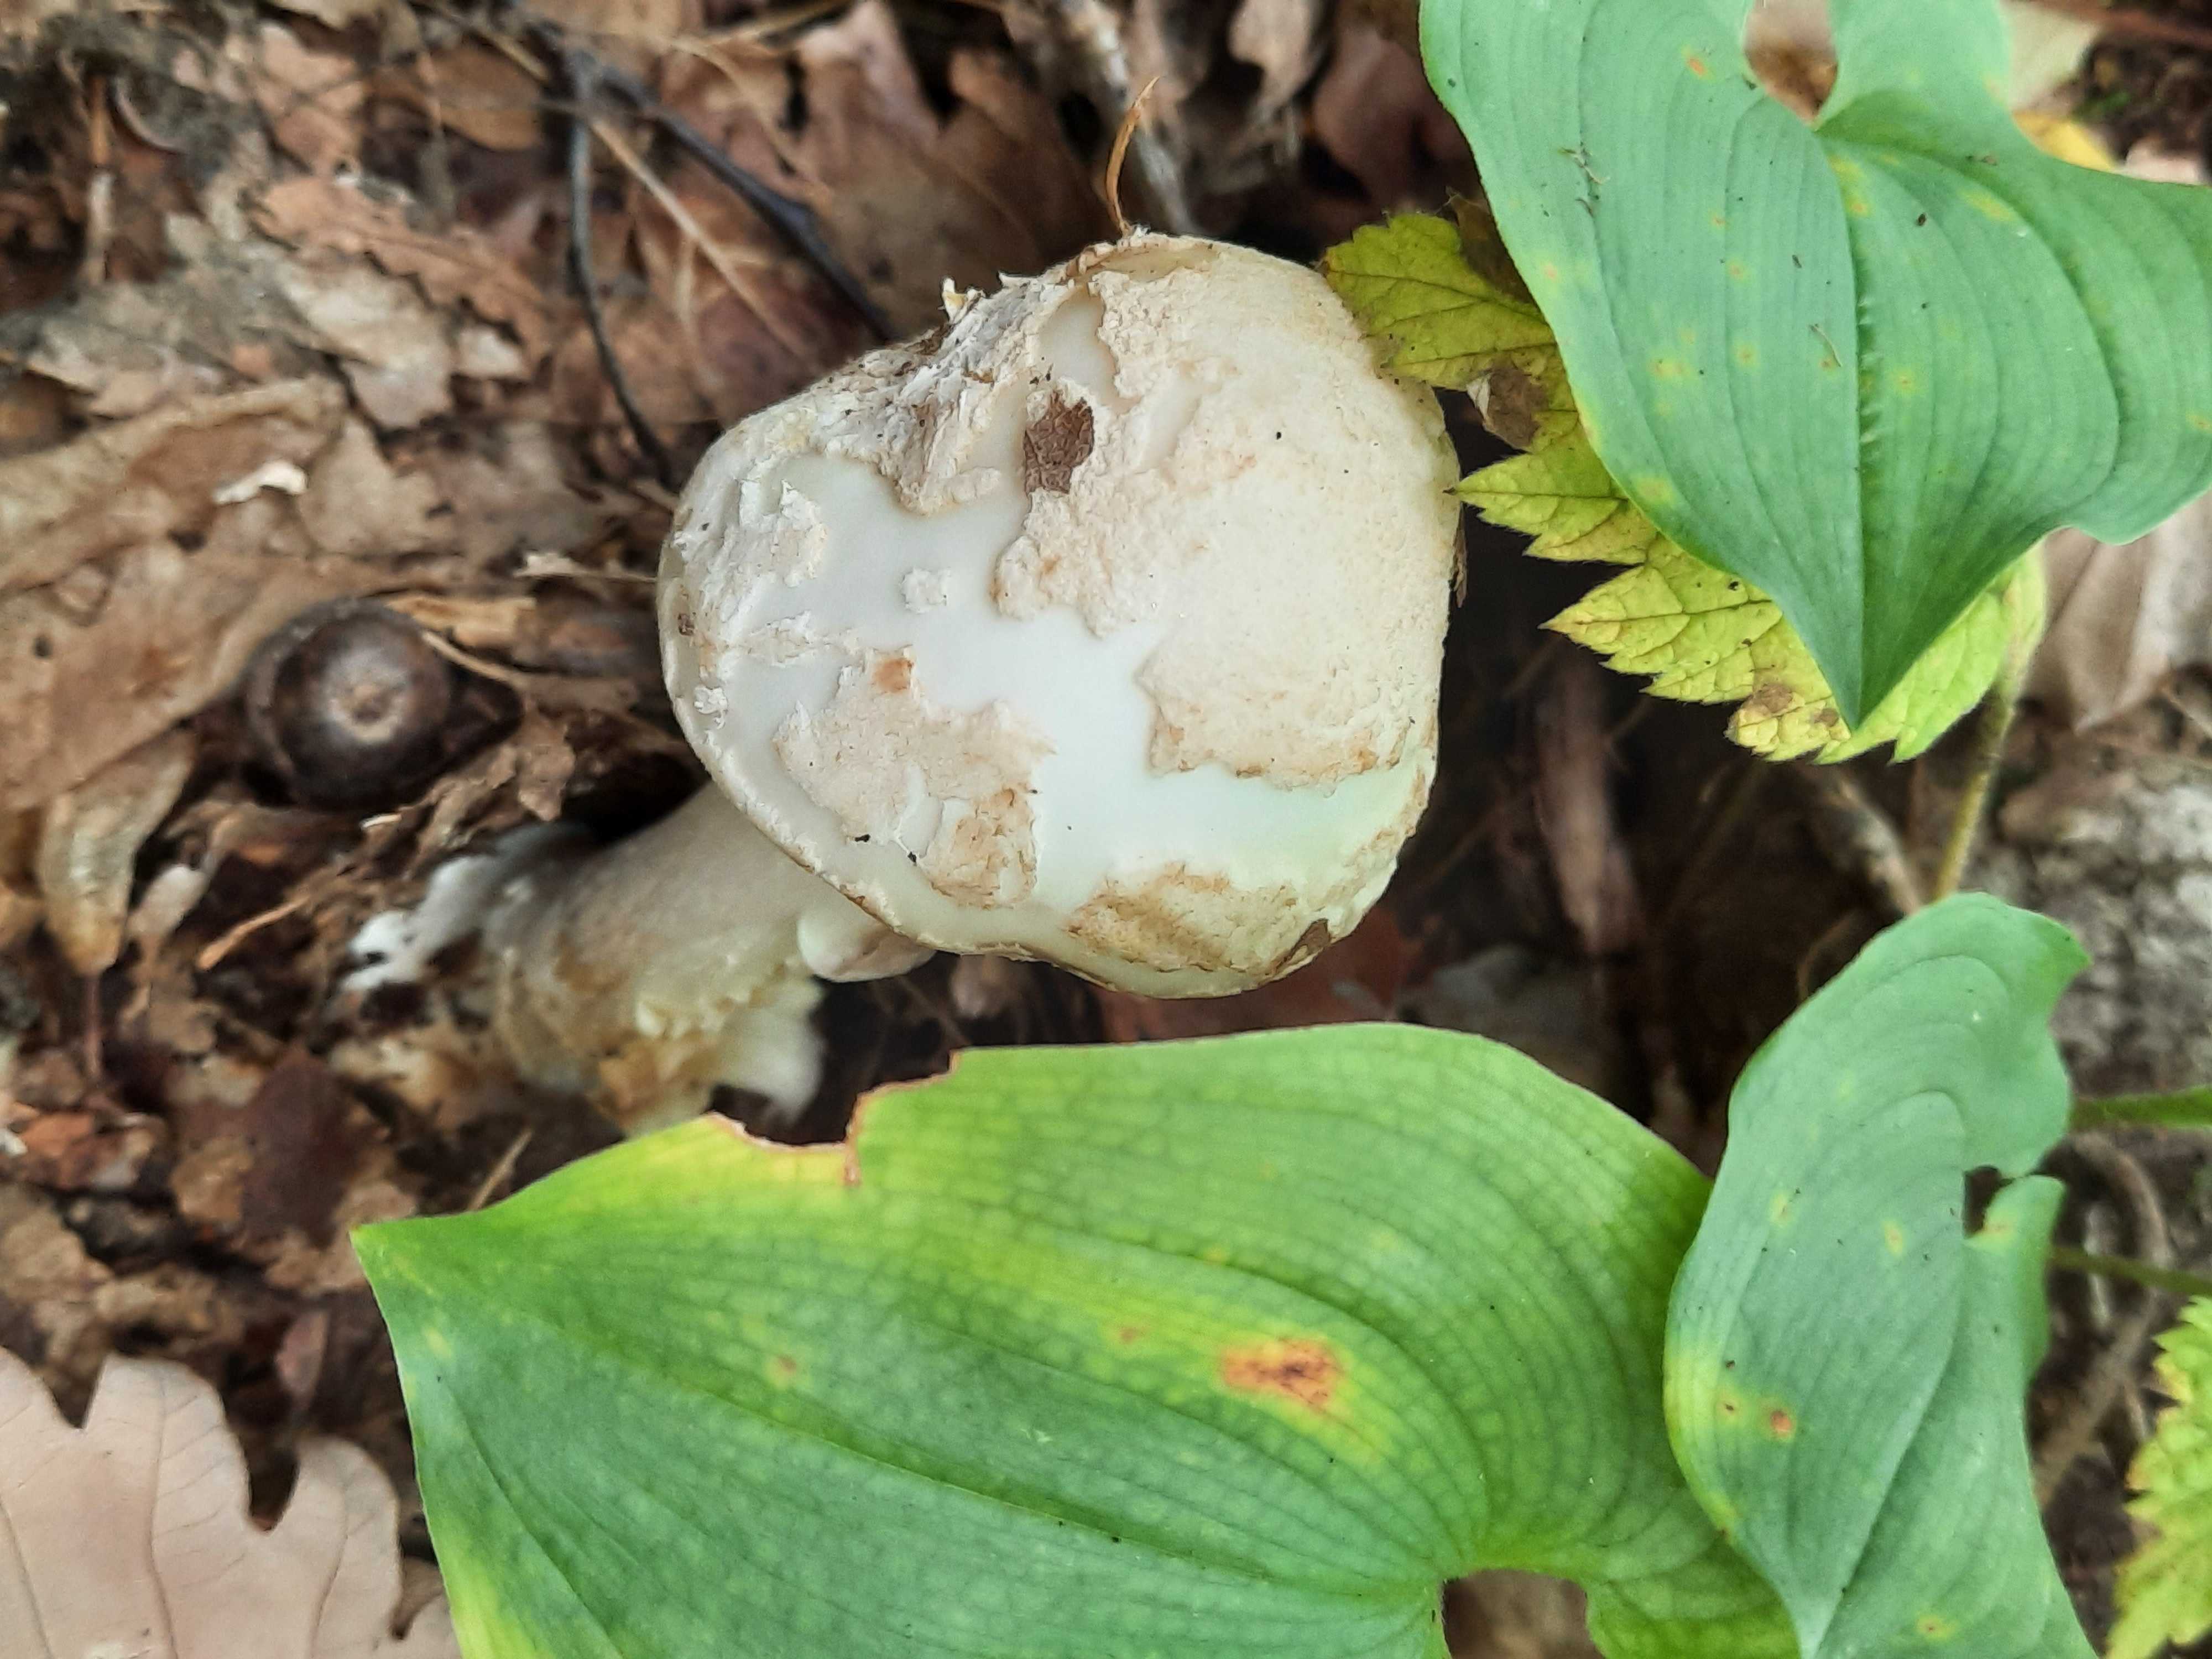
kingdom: Fungi
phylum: Basidiomycota
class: Agaricomycetes
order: Agaricales
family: Amanitaceae
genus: Amanita
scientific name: Amanita citrina
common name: kugleknoldet fluesvamp
